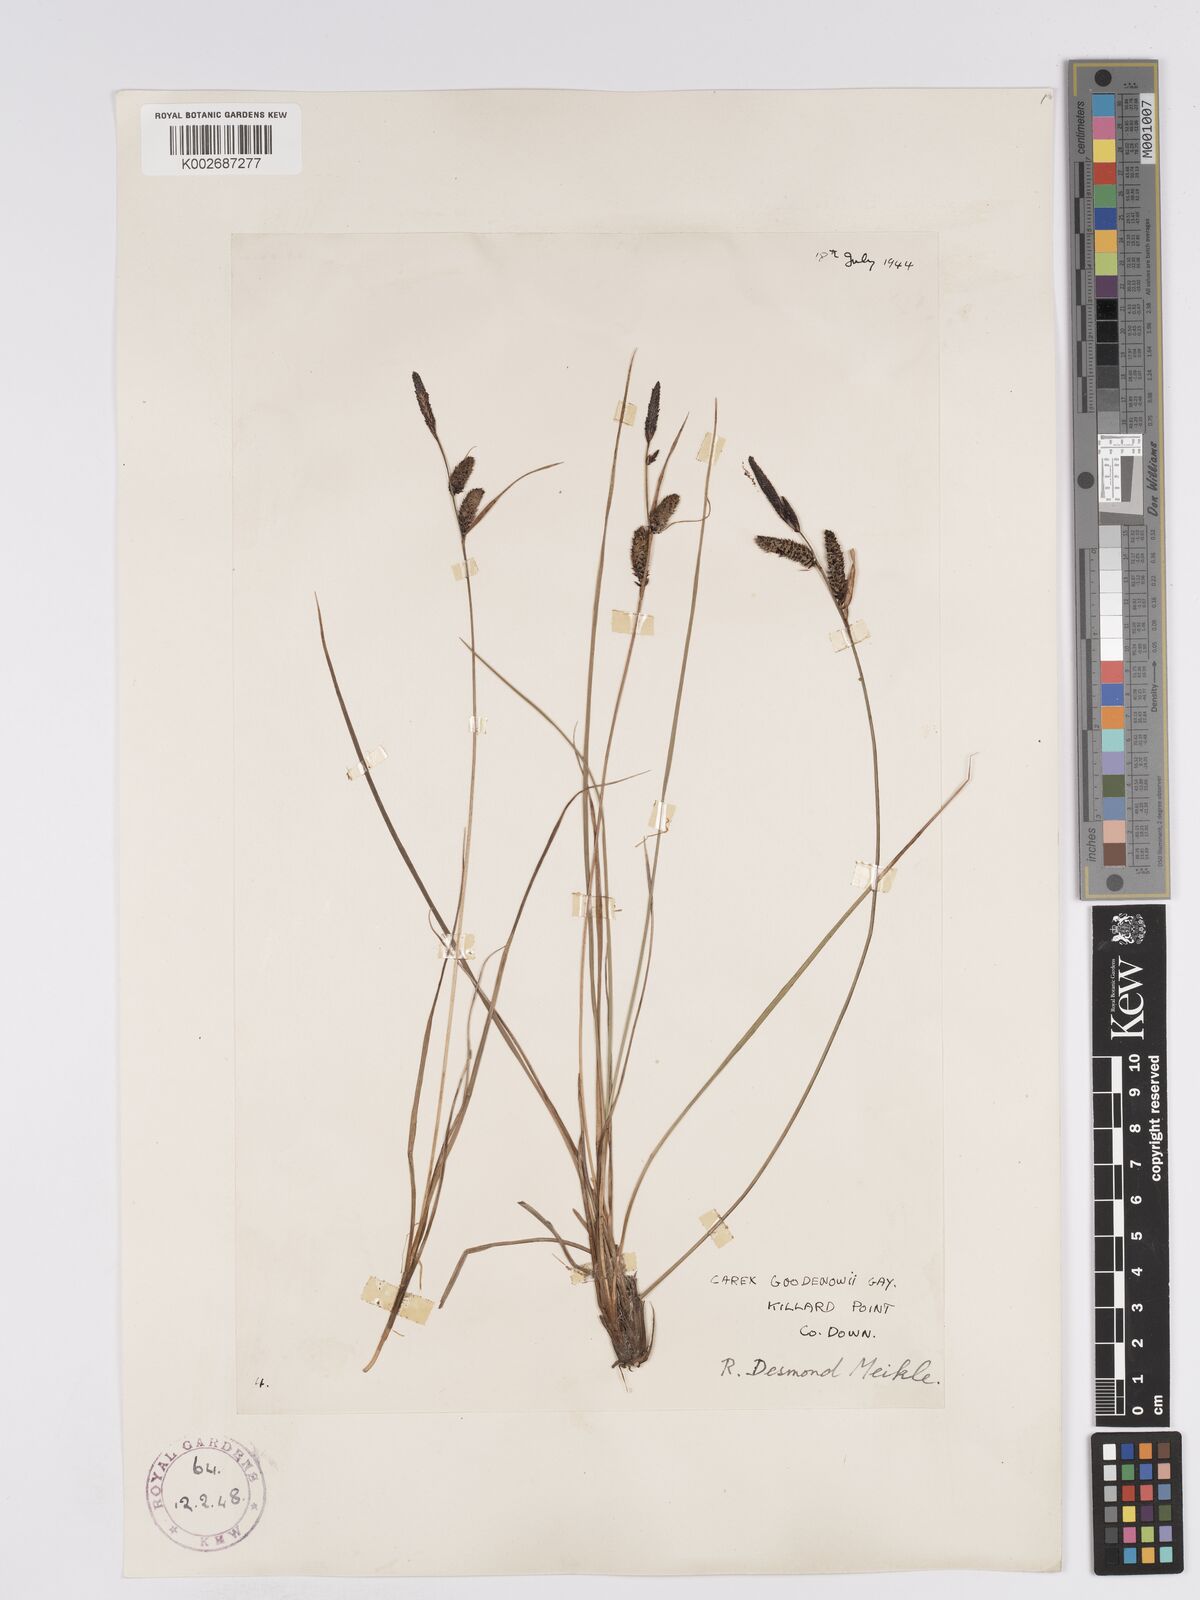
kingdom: Plantae
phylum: Tracheophyta
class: Liliopsida
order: Poales
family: Cyperaceae
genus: Carex
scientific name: Carex nigra
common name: Common sedge
